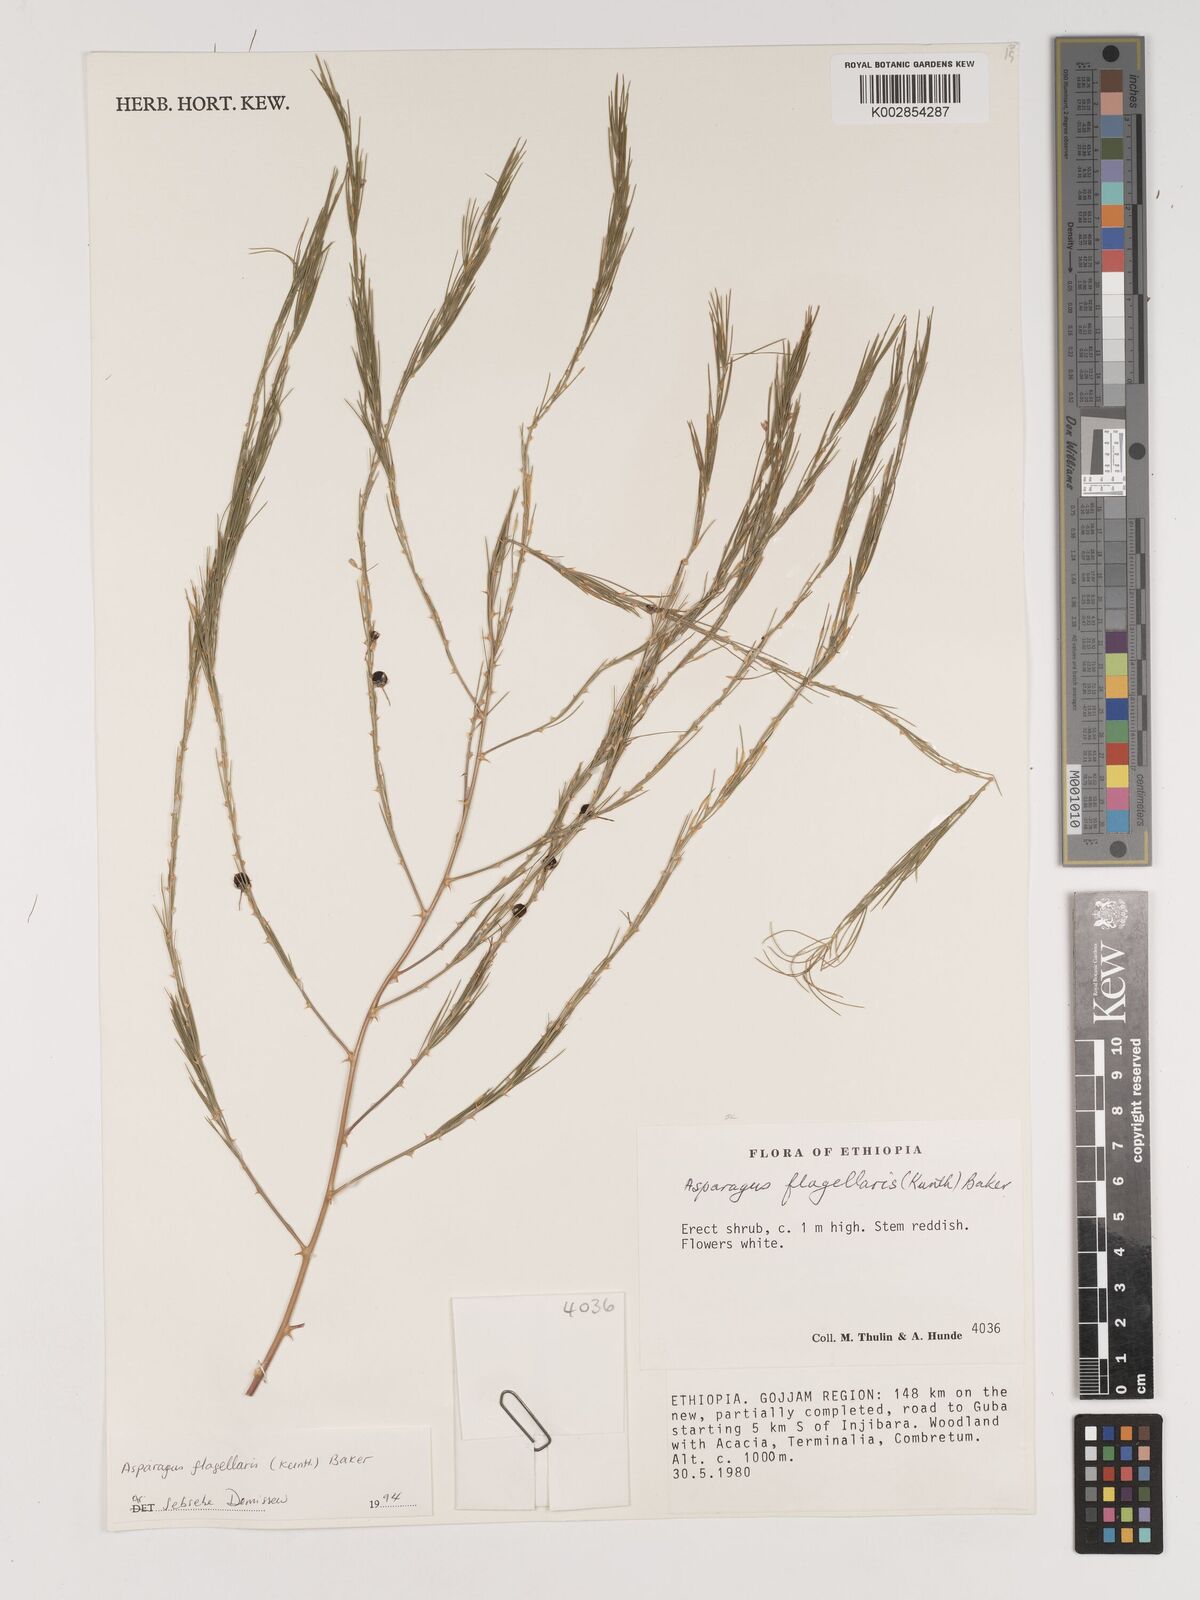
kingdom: Plantae
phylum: Tracheophyta
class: Liliopsida
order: Asparagales
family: Asparagaceae
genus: Asparagus
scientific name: Asparagus africanus
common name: Asparagus-fern
